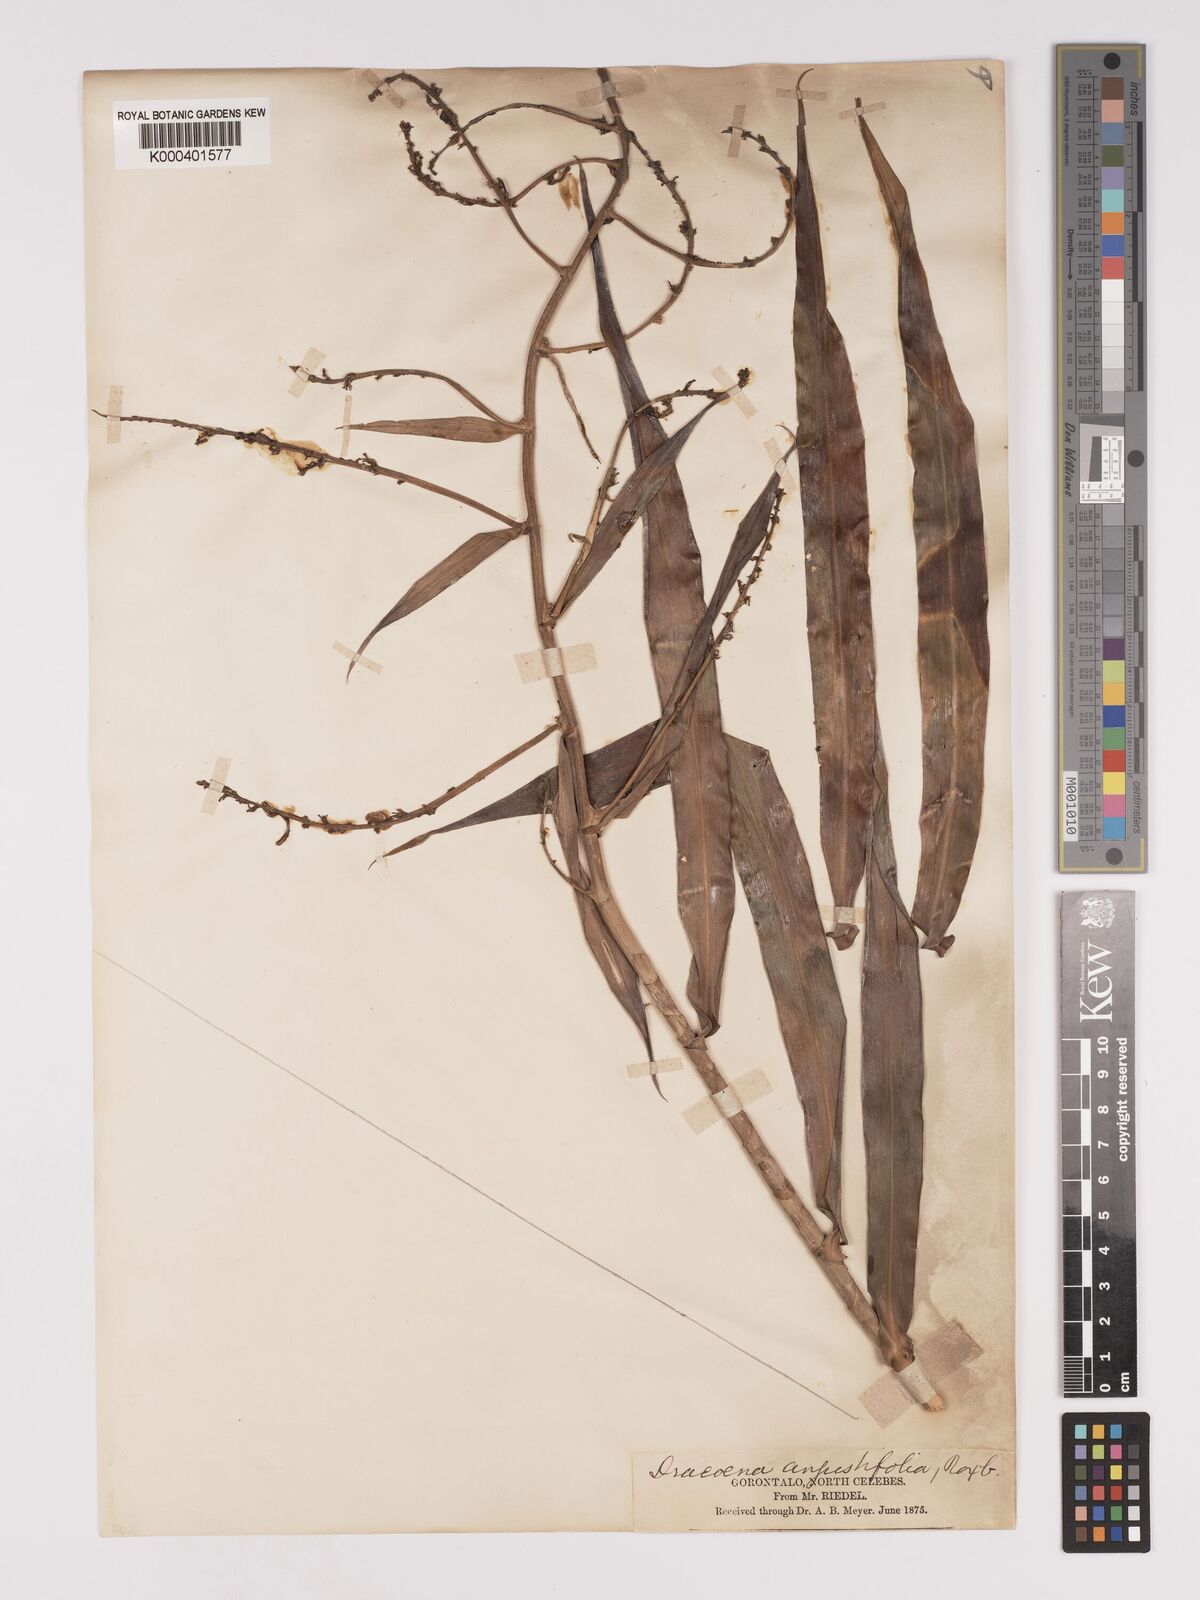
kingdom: Plantae
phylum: Tracheophyta
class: Liliopsida
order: Asparagales
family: Asparagaceae
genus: Dracaena
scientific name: Dracaena angustifolia
